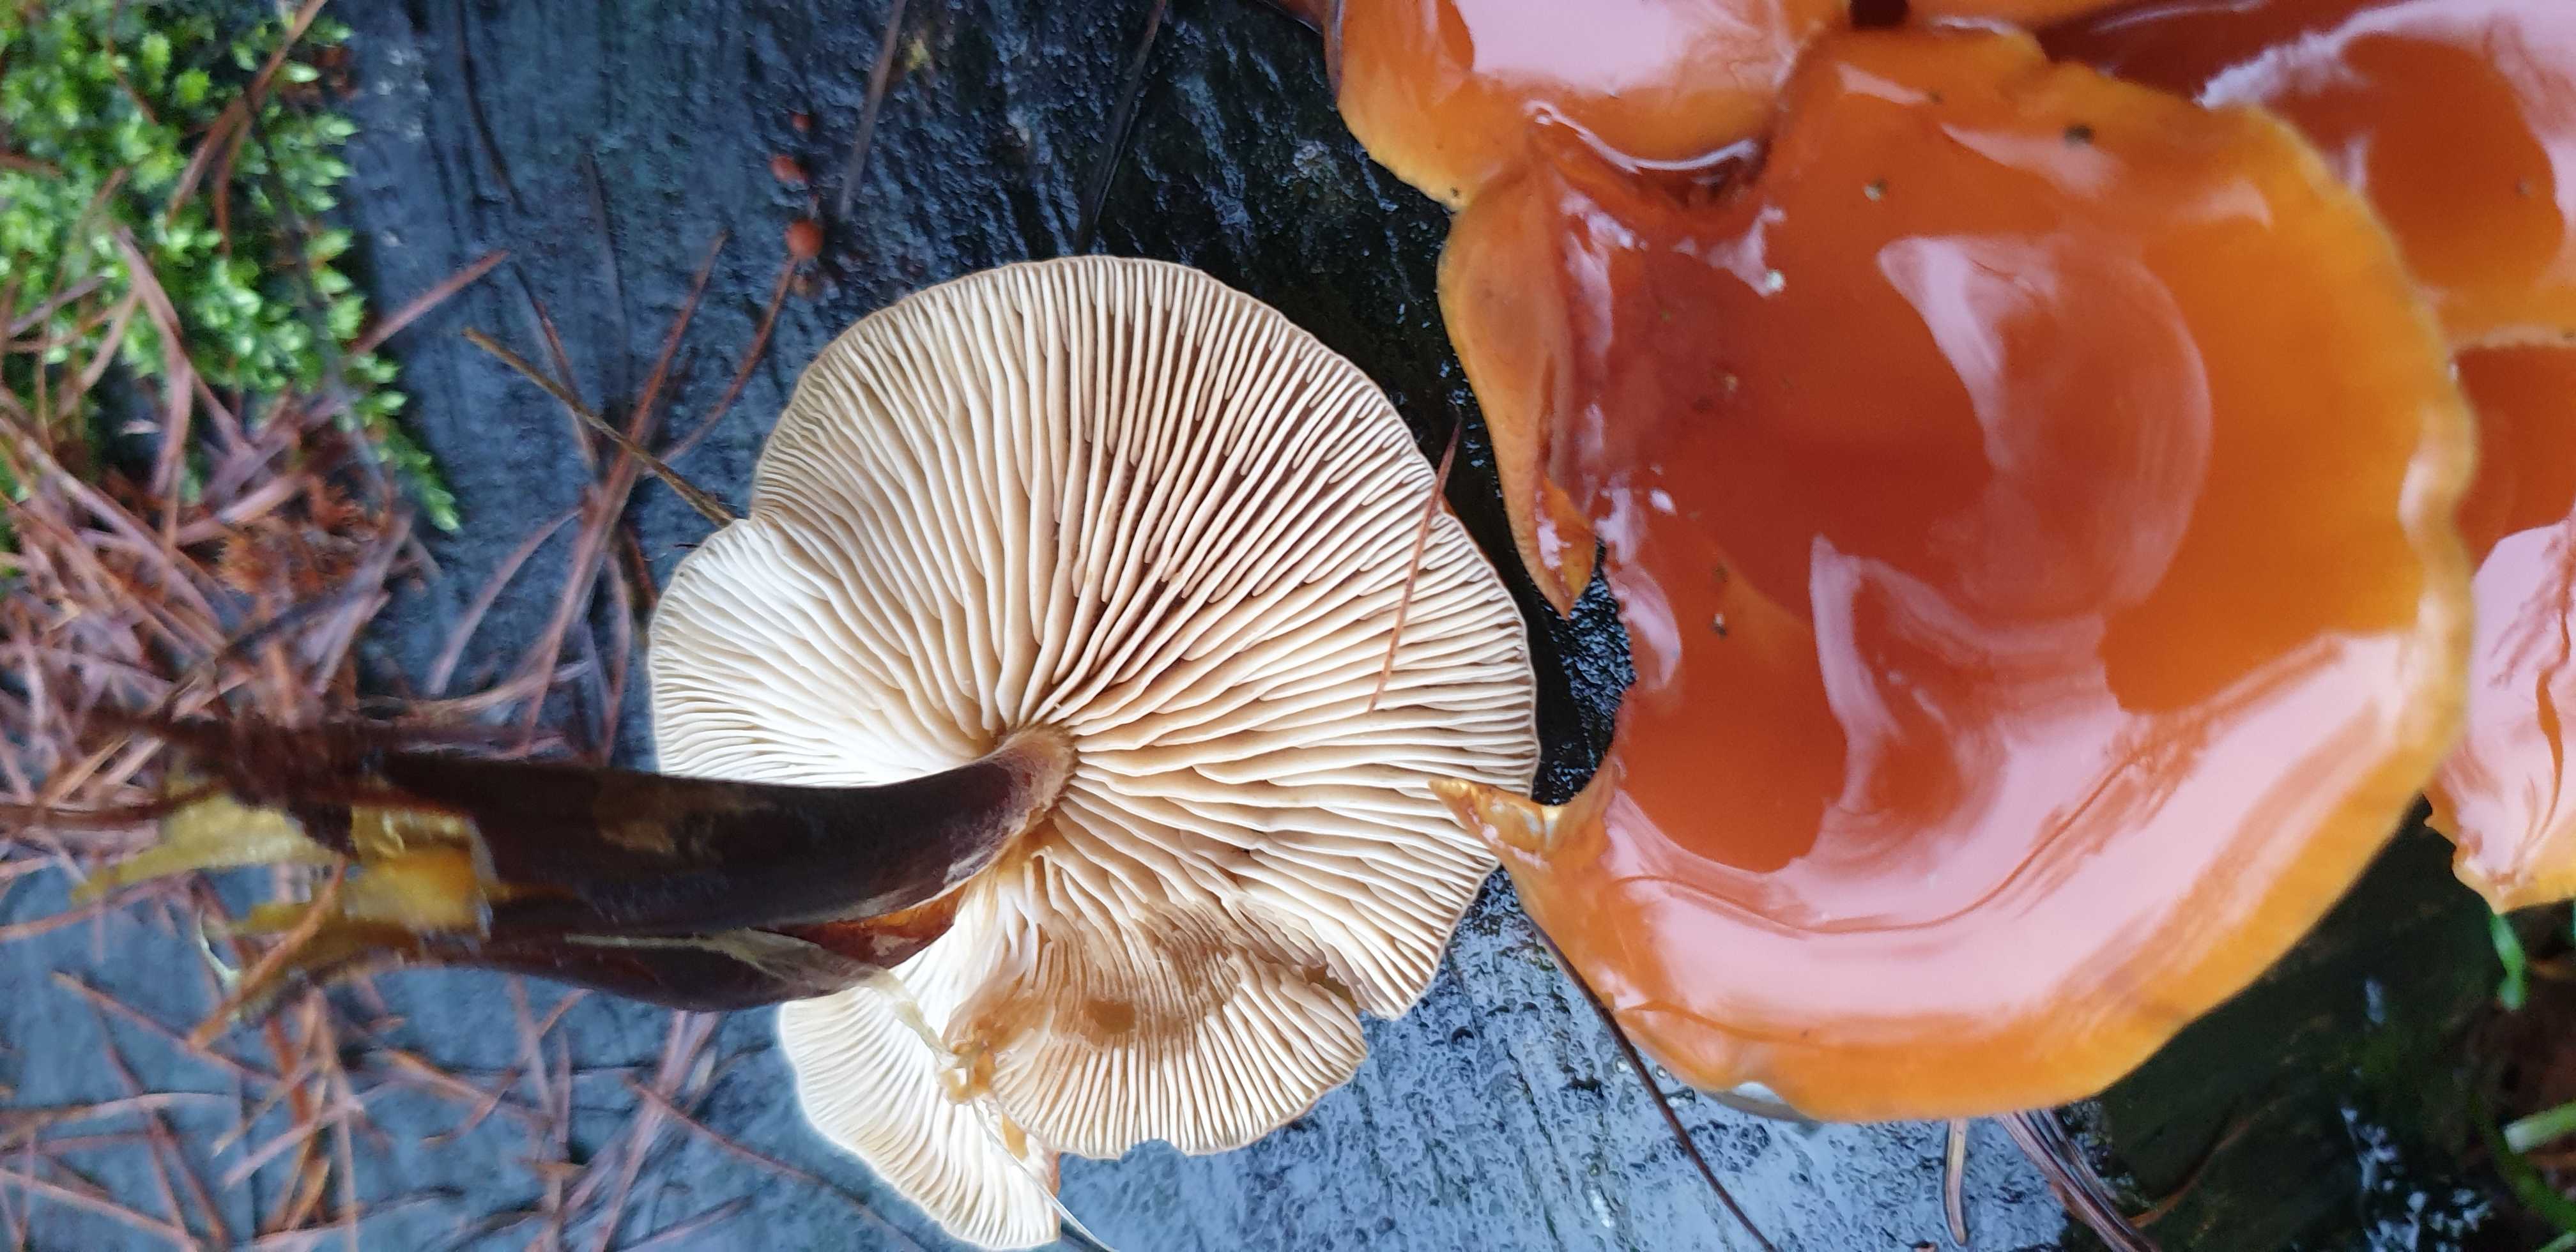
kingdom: Fungi
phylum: Basidiomycota
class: Agaricomycetes
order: Agaricales
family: Physalacriaceae
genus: Flammulina
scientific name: Flammulina velutipes
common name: gul fløjlsfod
